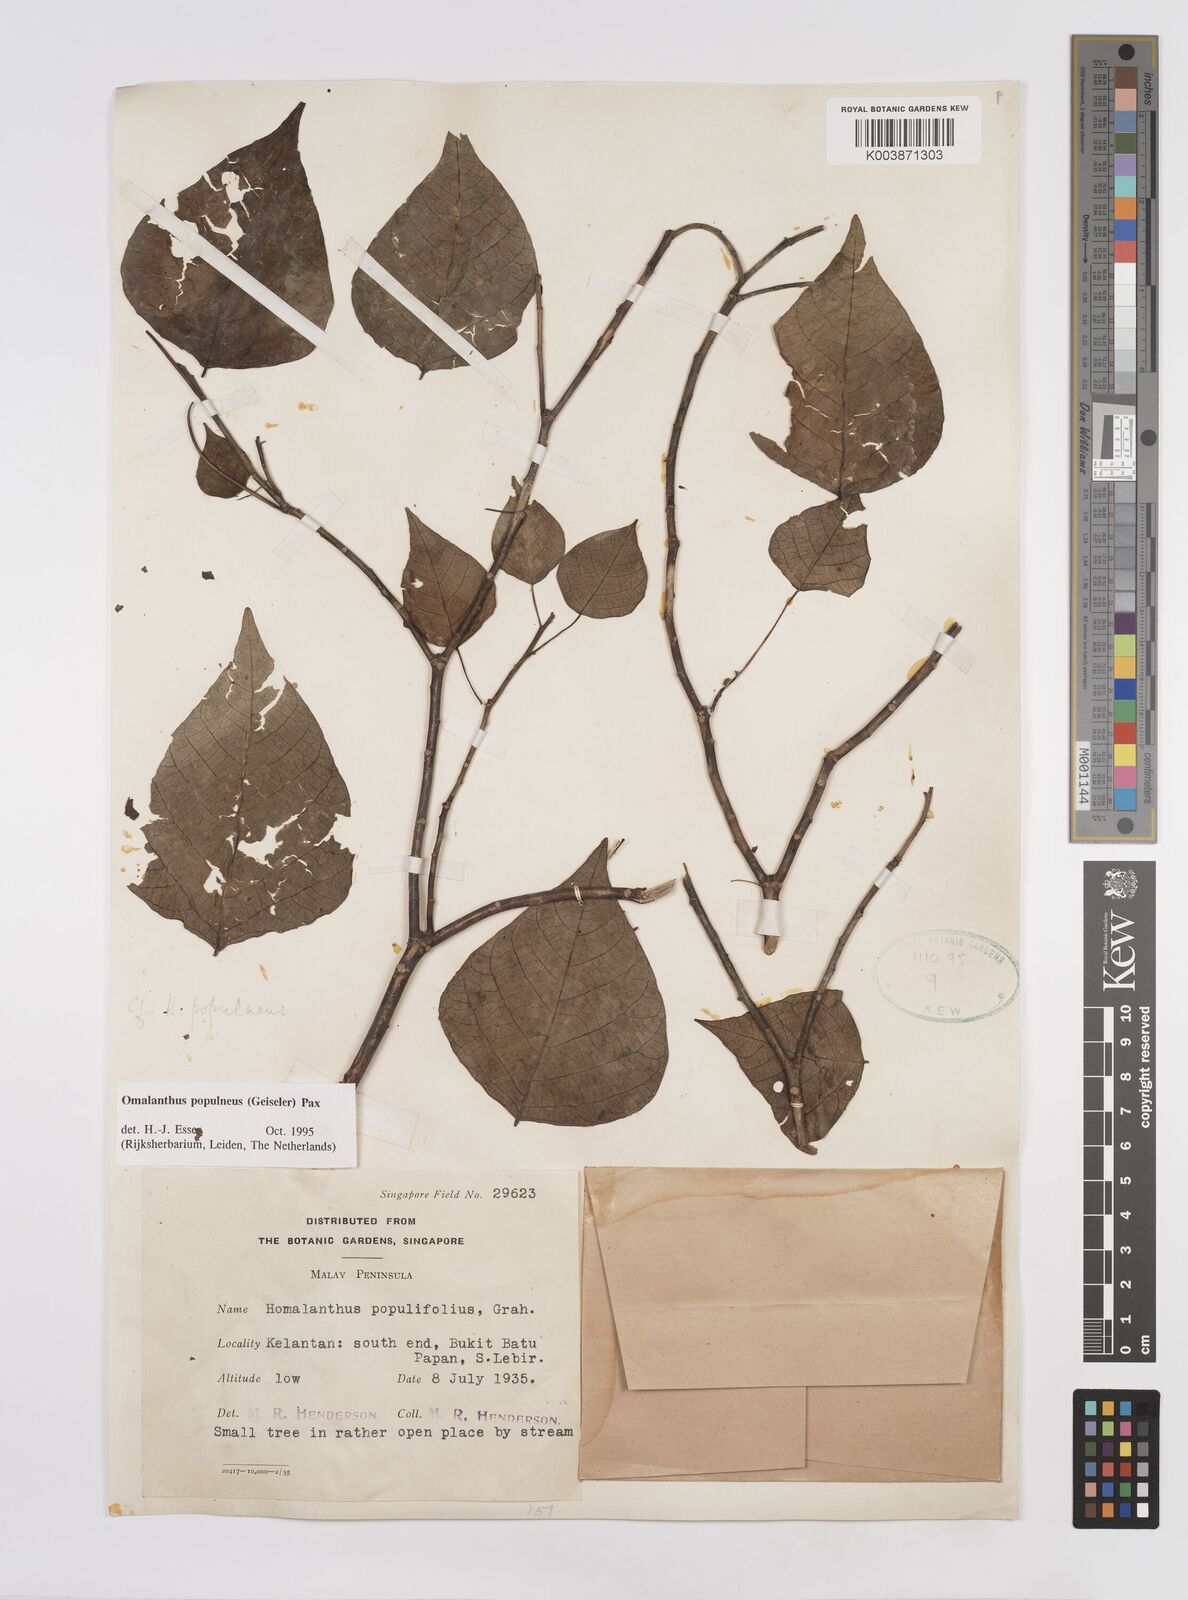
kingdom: Plantae
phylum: Tracheophyta
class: Magnoliopsida
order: Malpighiales
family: Euphorbiaceae
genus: Homalanthus
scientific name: Homalanthus populneus
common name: Spurge
